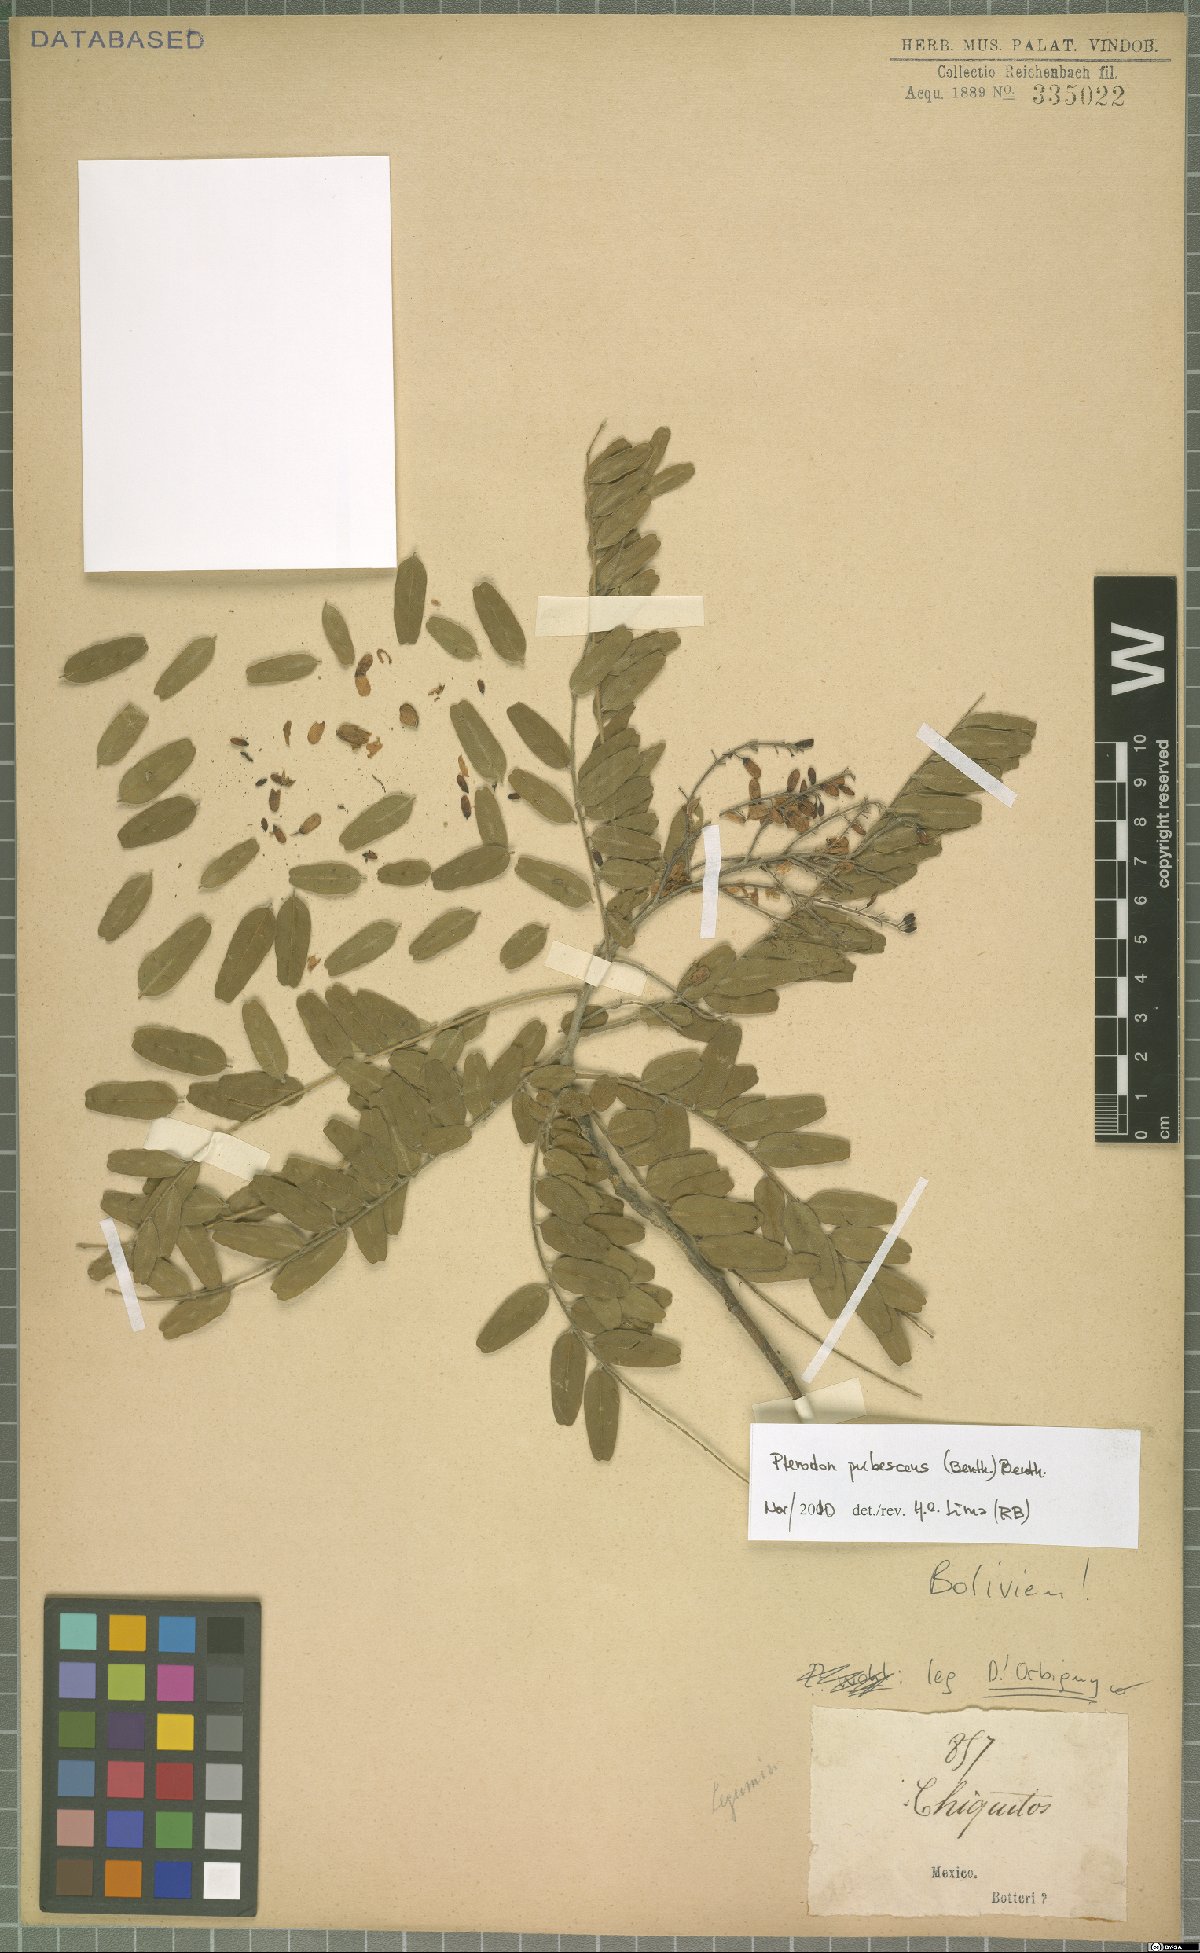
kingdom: Plantae
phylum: Tracheophyta
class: Magnoliopsida
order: Fabales
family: Fabaceae
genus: Pterodon
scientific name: Pterodon emarginatus
